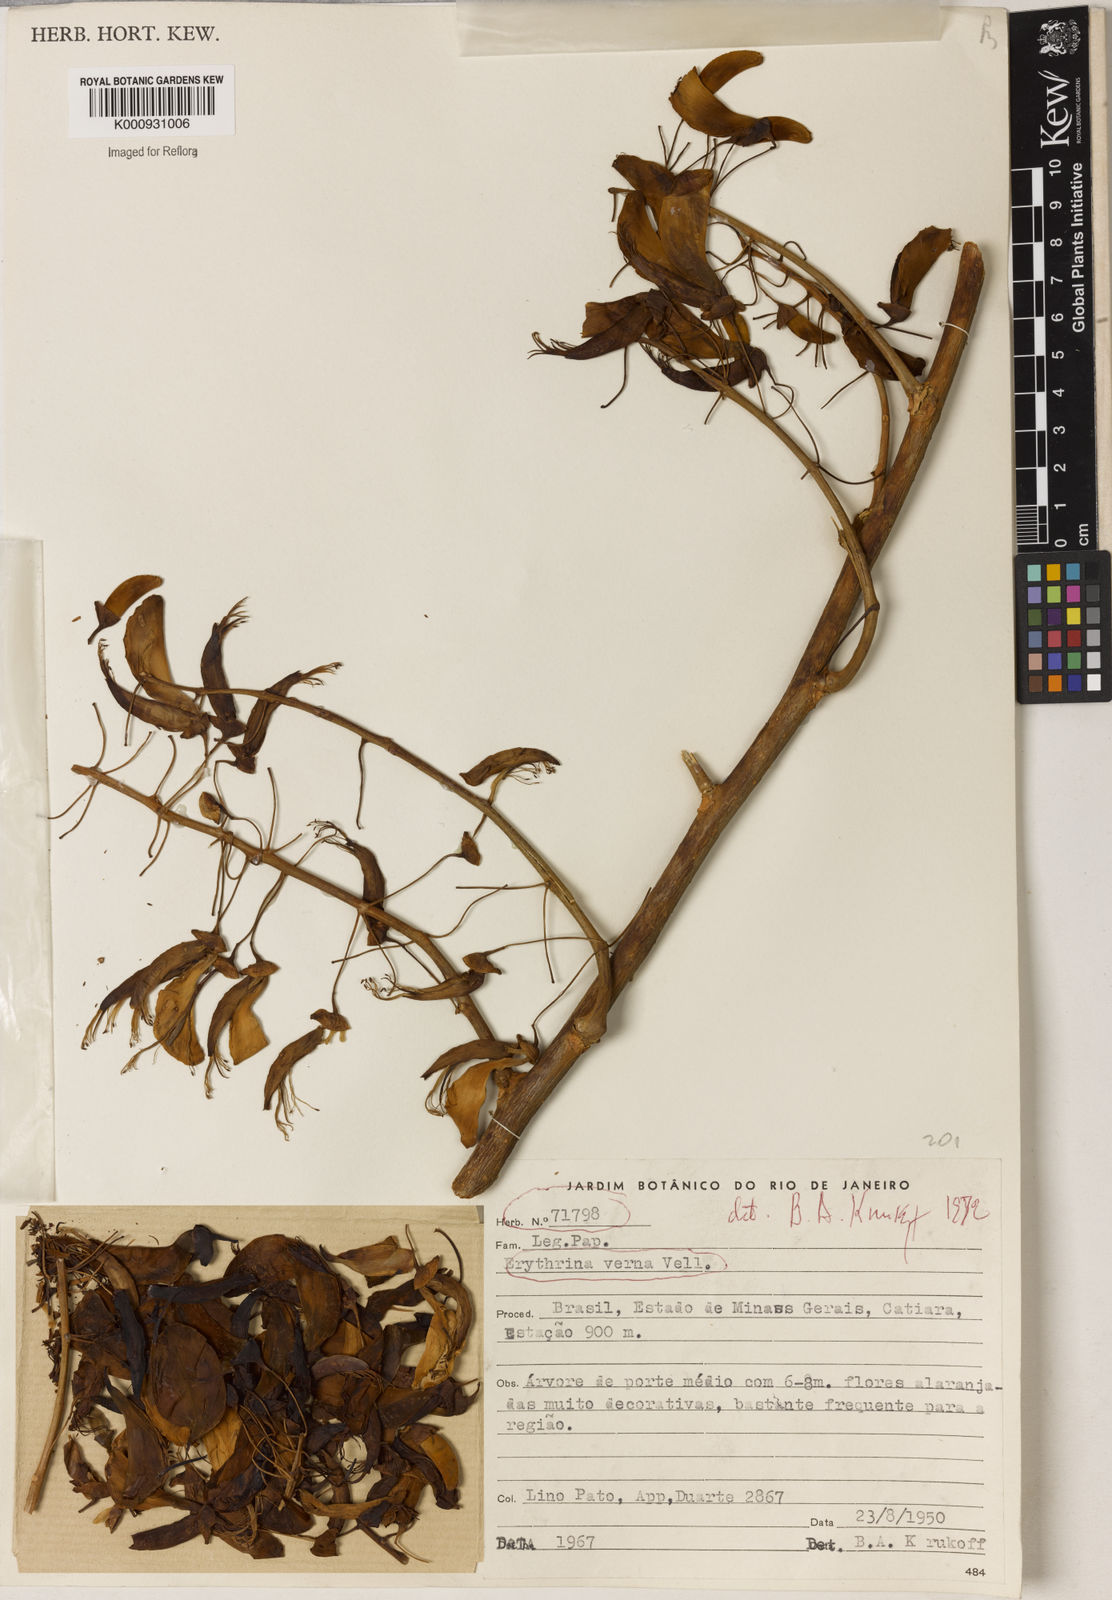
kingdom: Plantae
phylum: Tracheophyta
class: Magnoliopsida
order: Fabales
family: Fabaceae
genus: Erythrina
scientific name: Erythrina verna
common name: Mulungú
